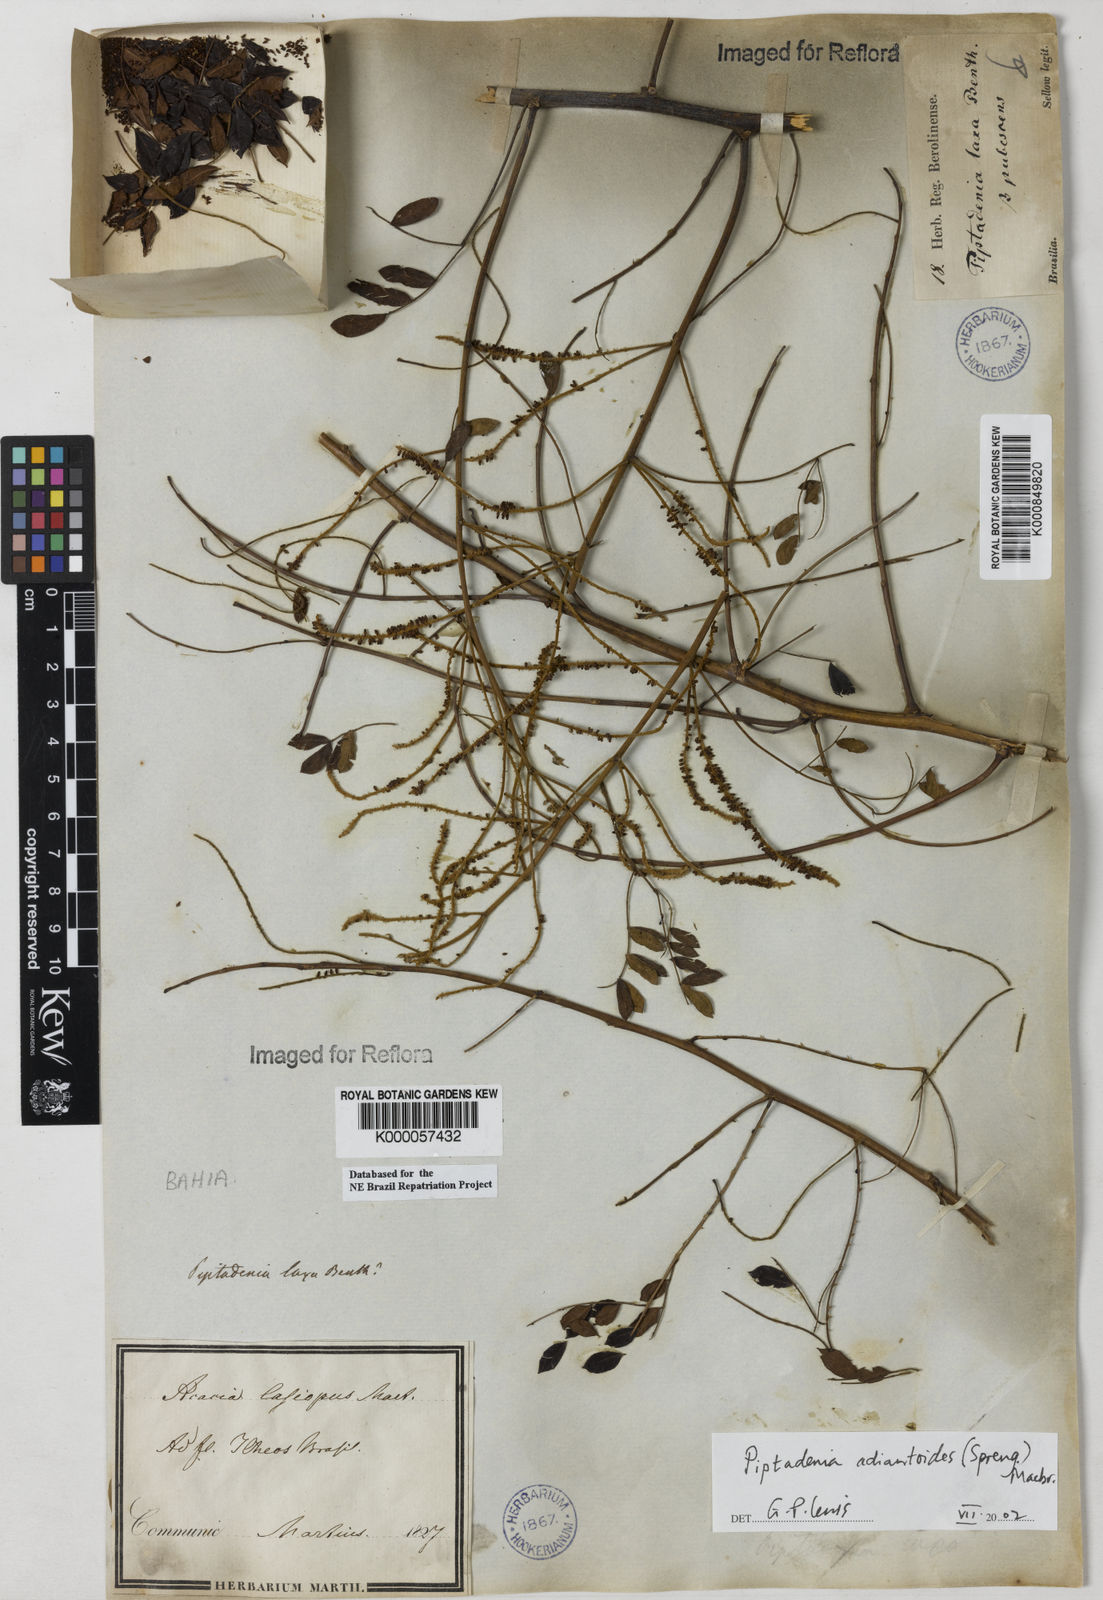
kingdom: Plantae
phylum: Tracheophyta
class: Magnoliopsida
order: Fabales
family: Fabaceae
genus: Piptadenia
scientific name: Piptadenia adiantoides
